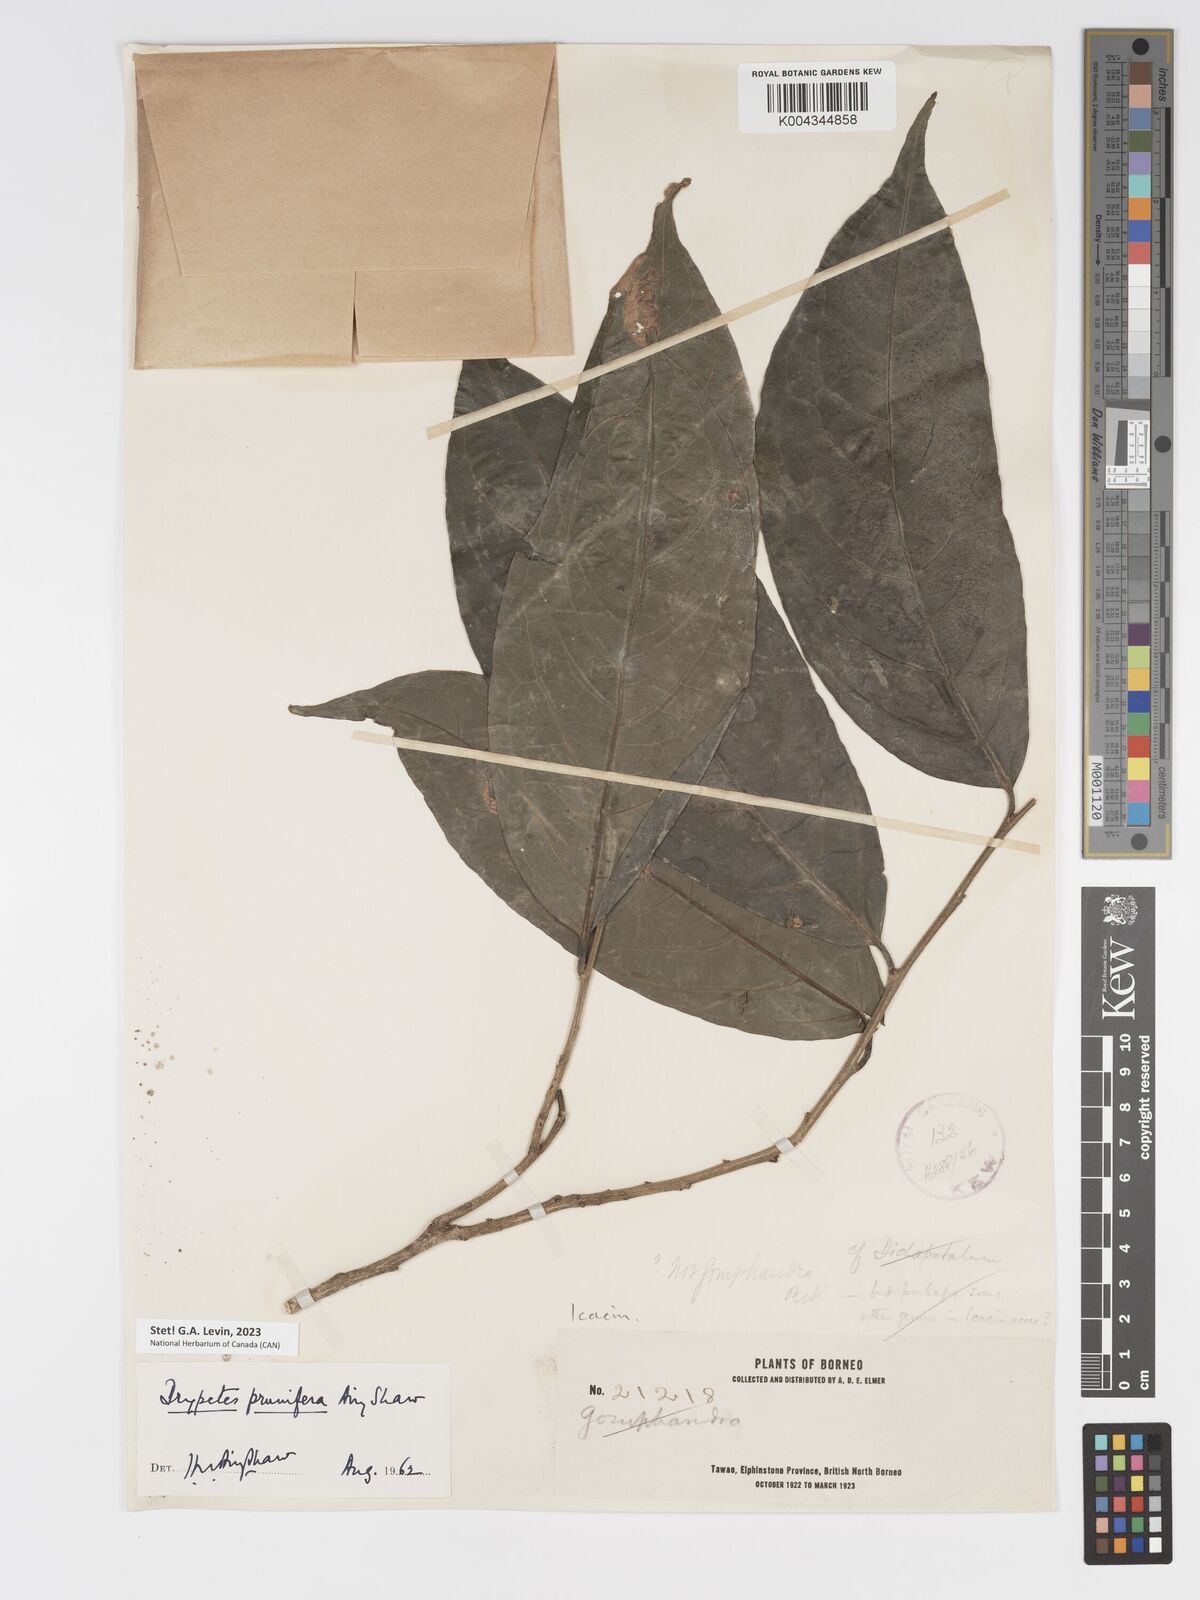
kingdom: Plantae
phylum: Tracheophyta
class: Magnoliopsida
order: Malpighiales
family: Putranjivaceae
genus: Drypetes
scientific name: Drypetes prunifera
